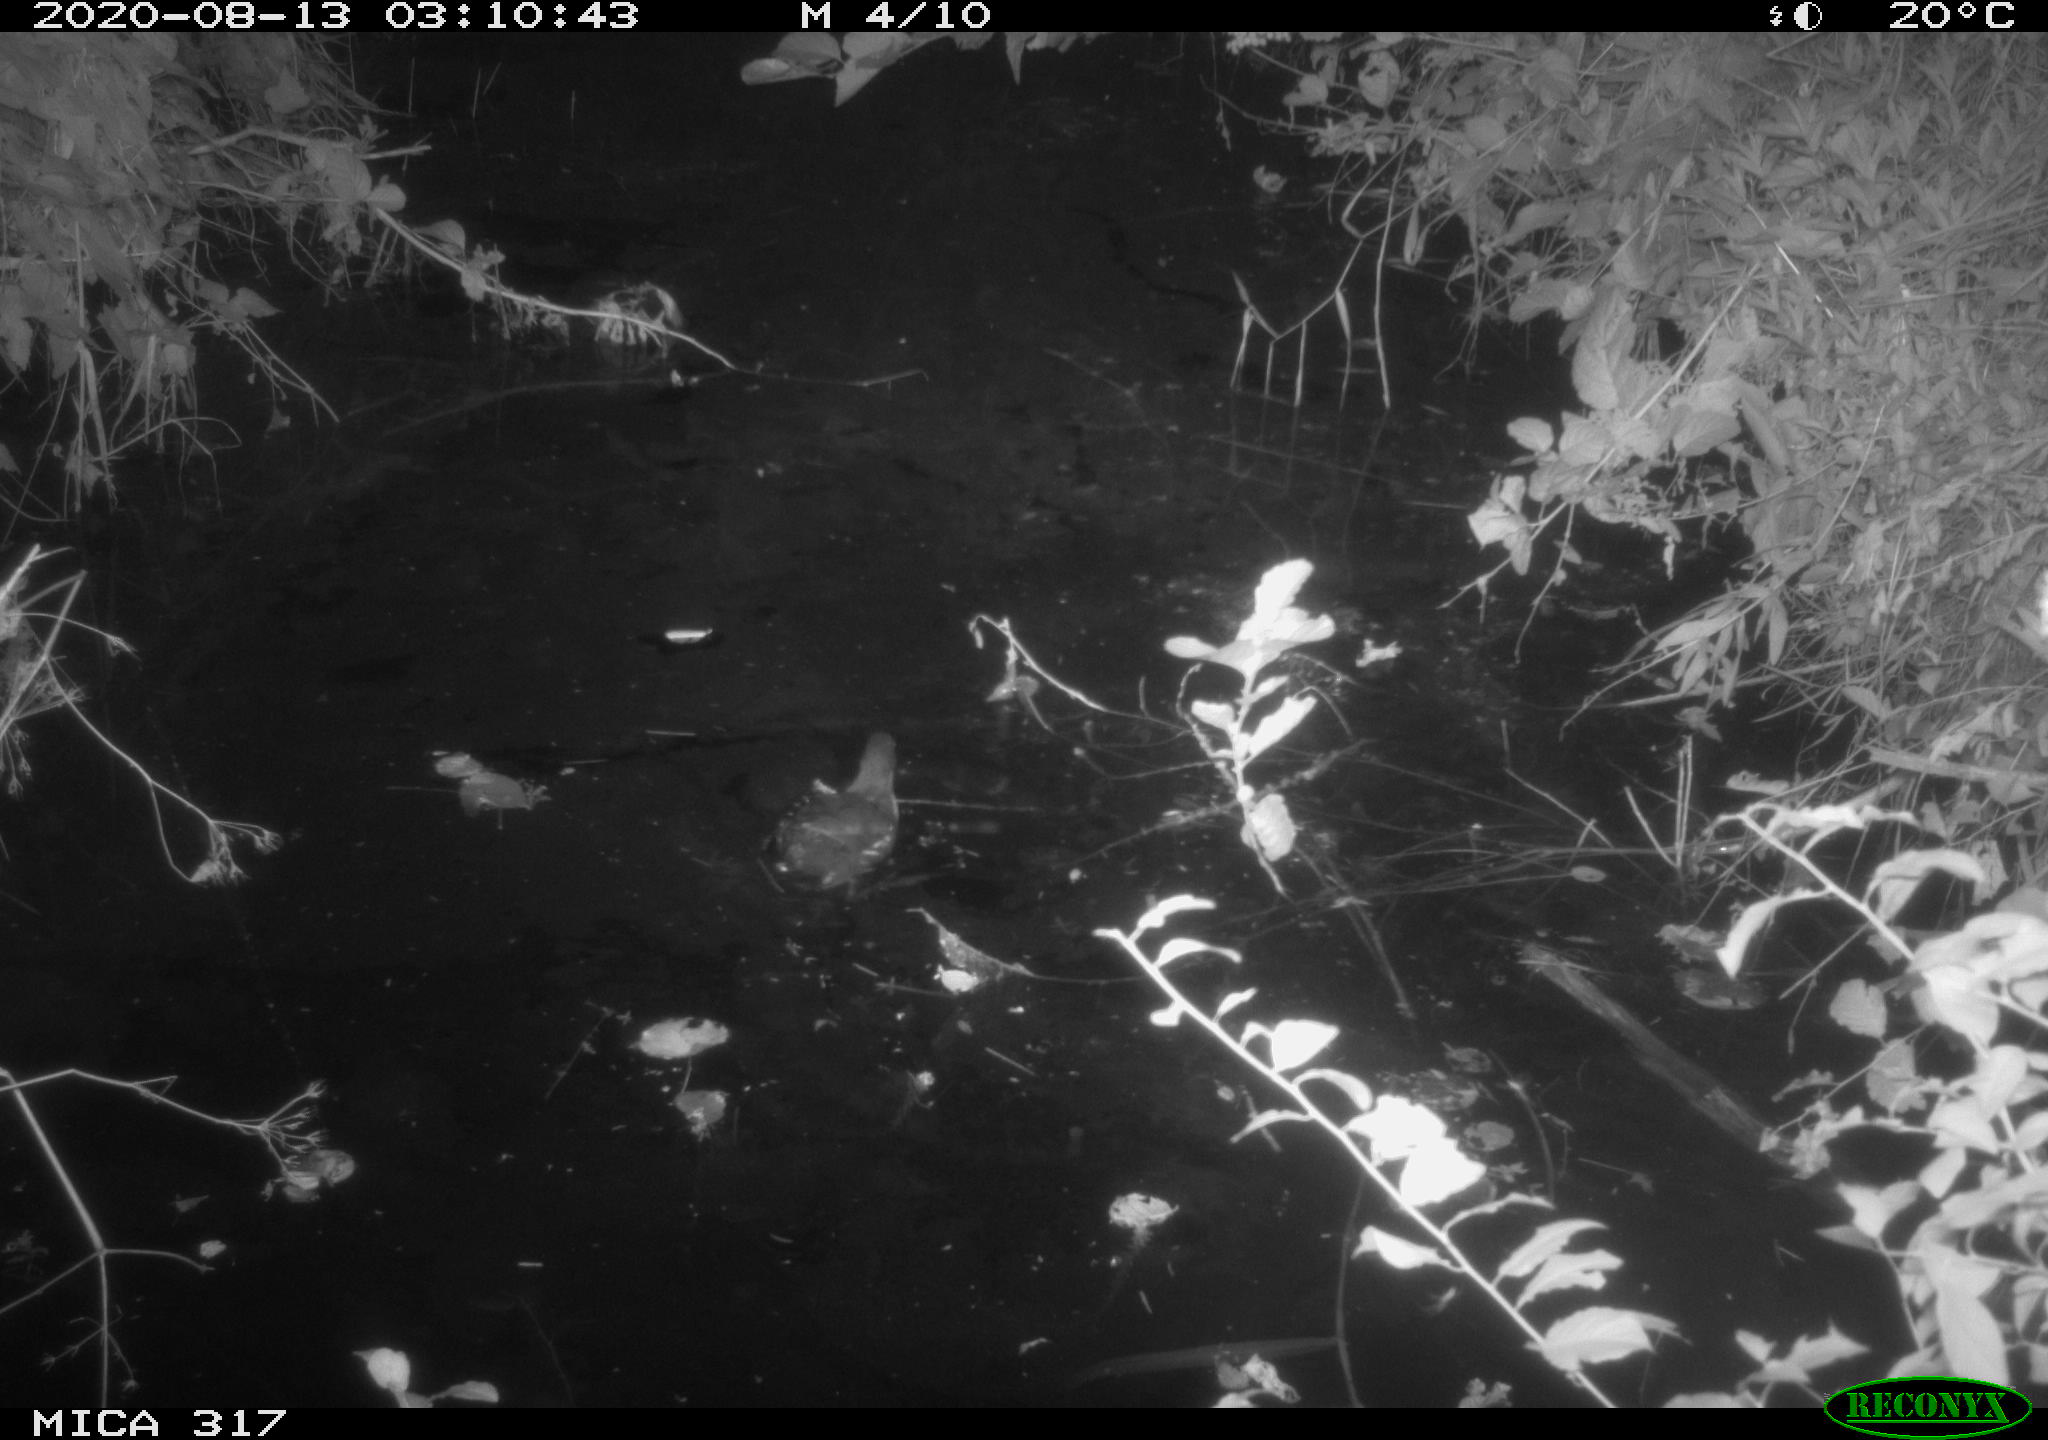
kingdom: Animalia
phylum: Chordata
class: Aves
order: Gruiformes
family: Rallidae
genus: Gallinula
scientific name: Gallinula chloropus
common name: Common moorhen
